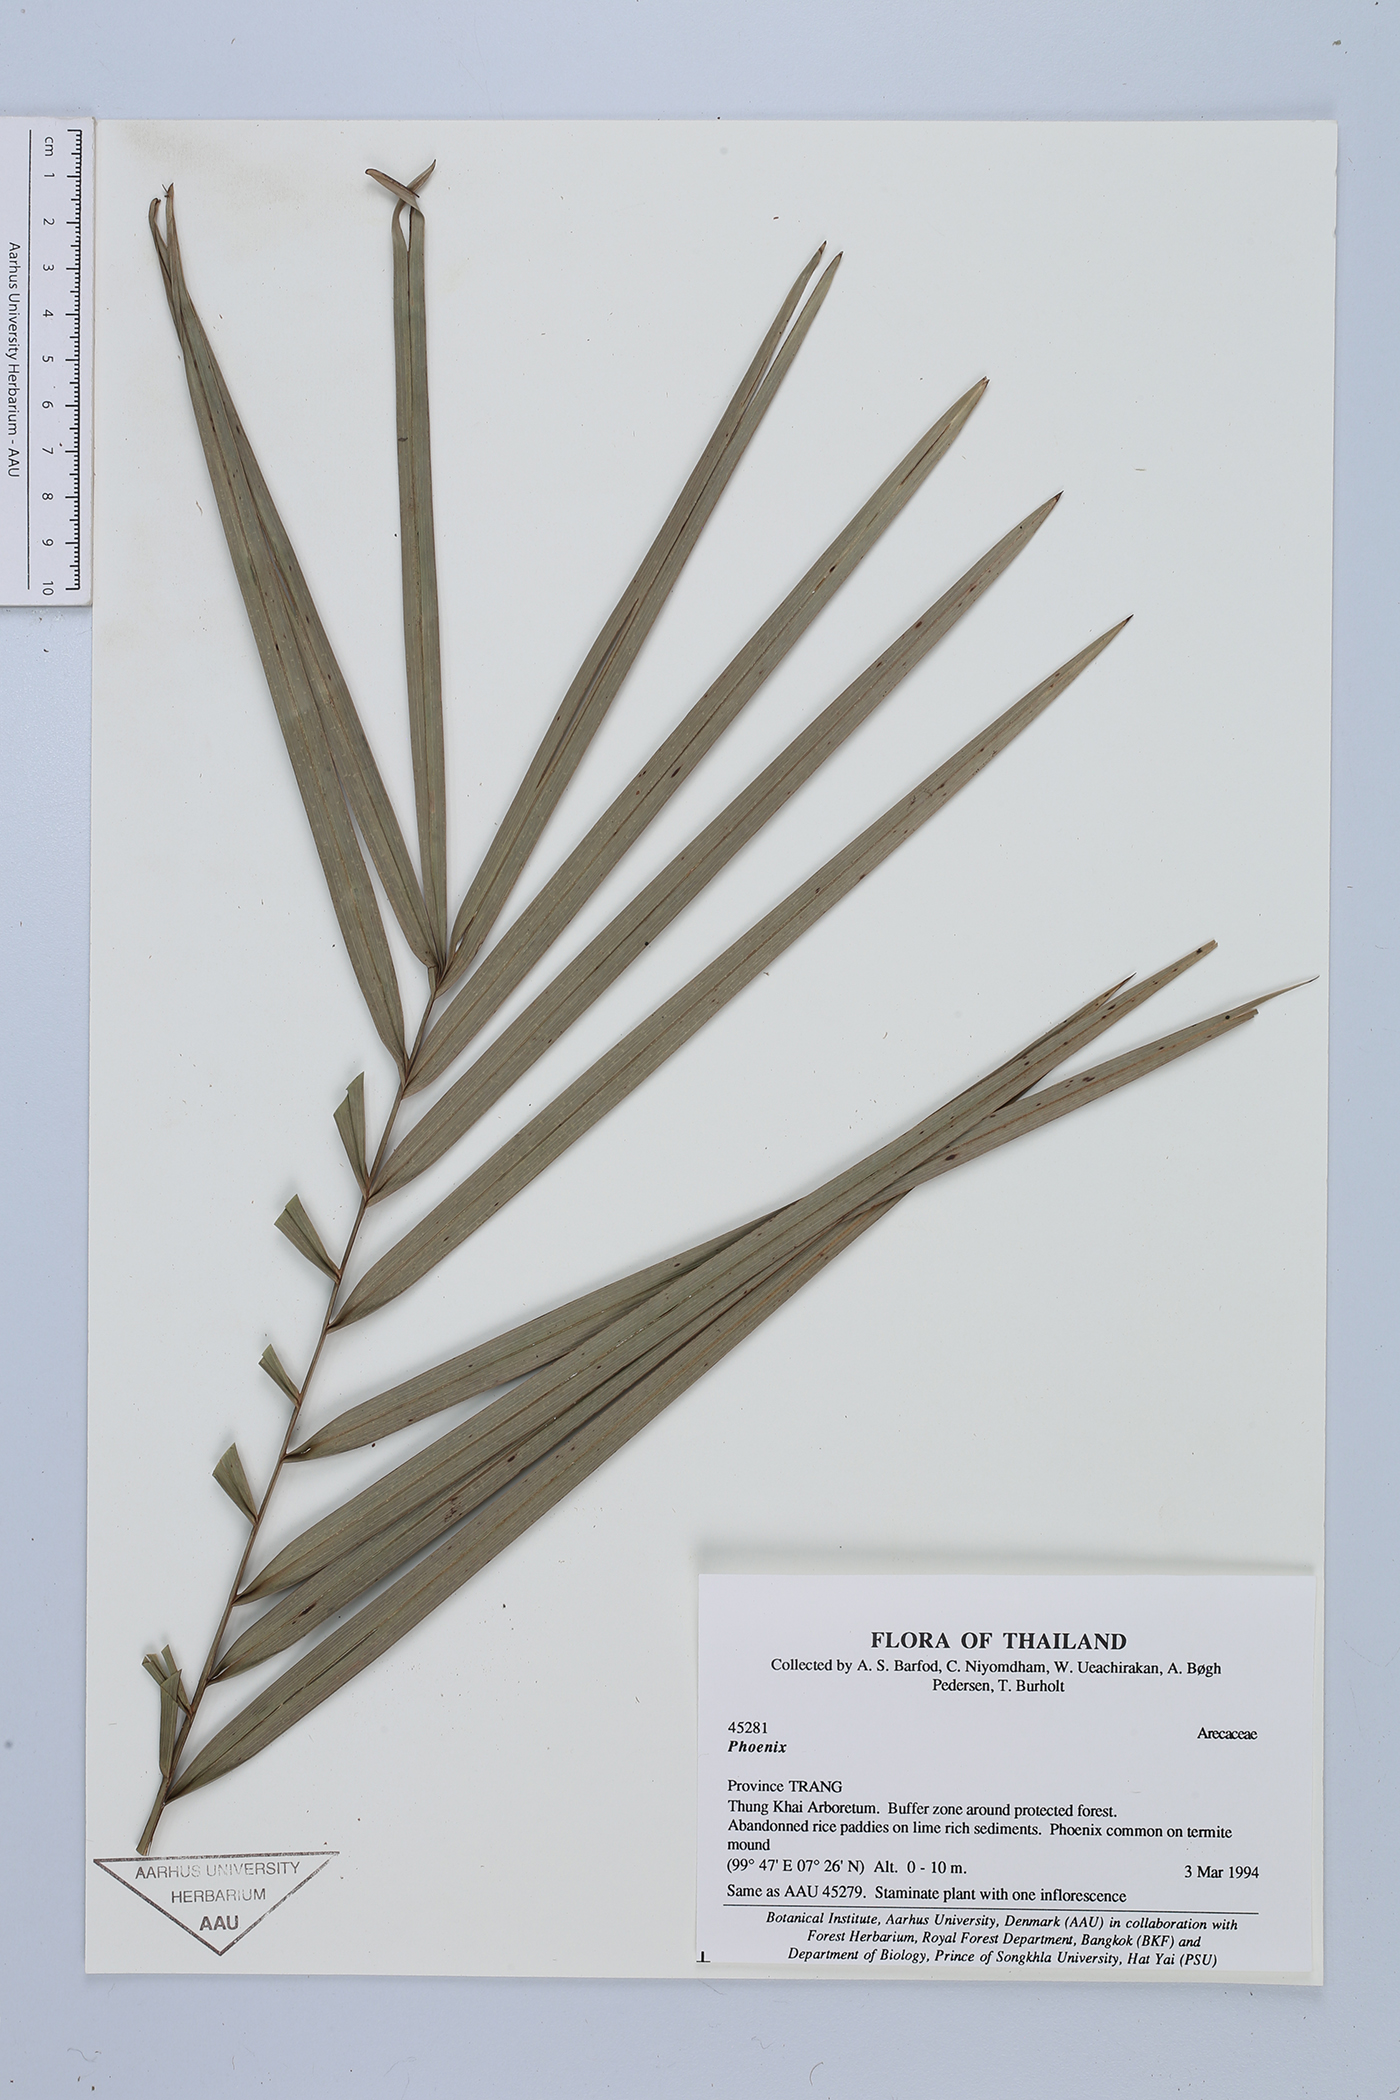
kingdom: Plantae
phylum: Tracheophyta
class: Liliopsida
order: Arecales
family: Arecaceae
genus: Phoenix
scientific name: Phoenix
